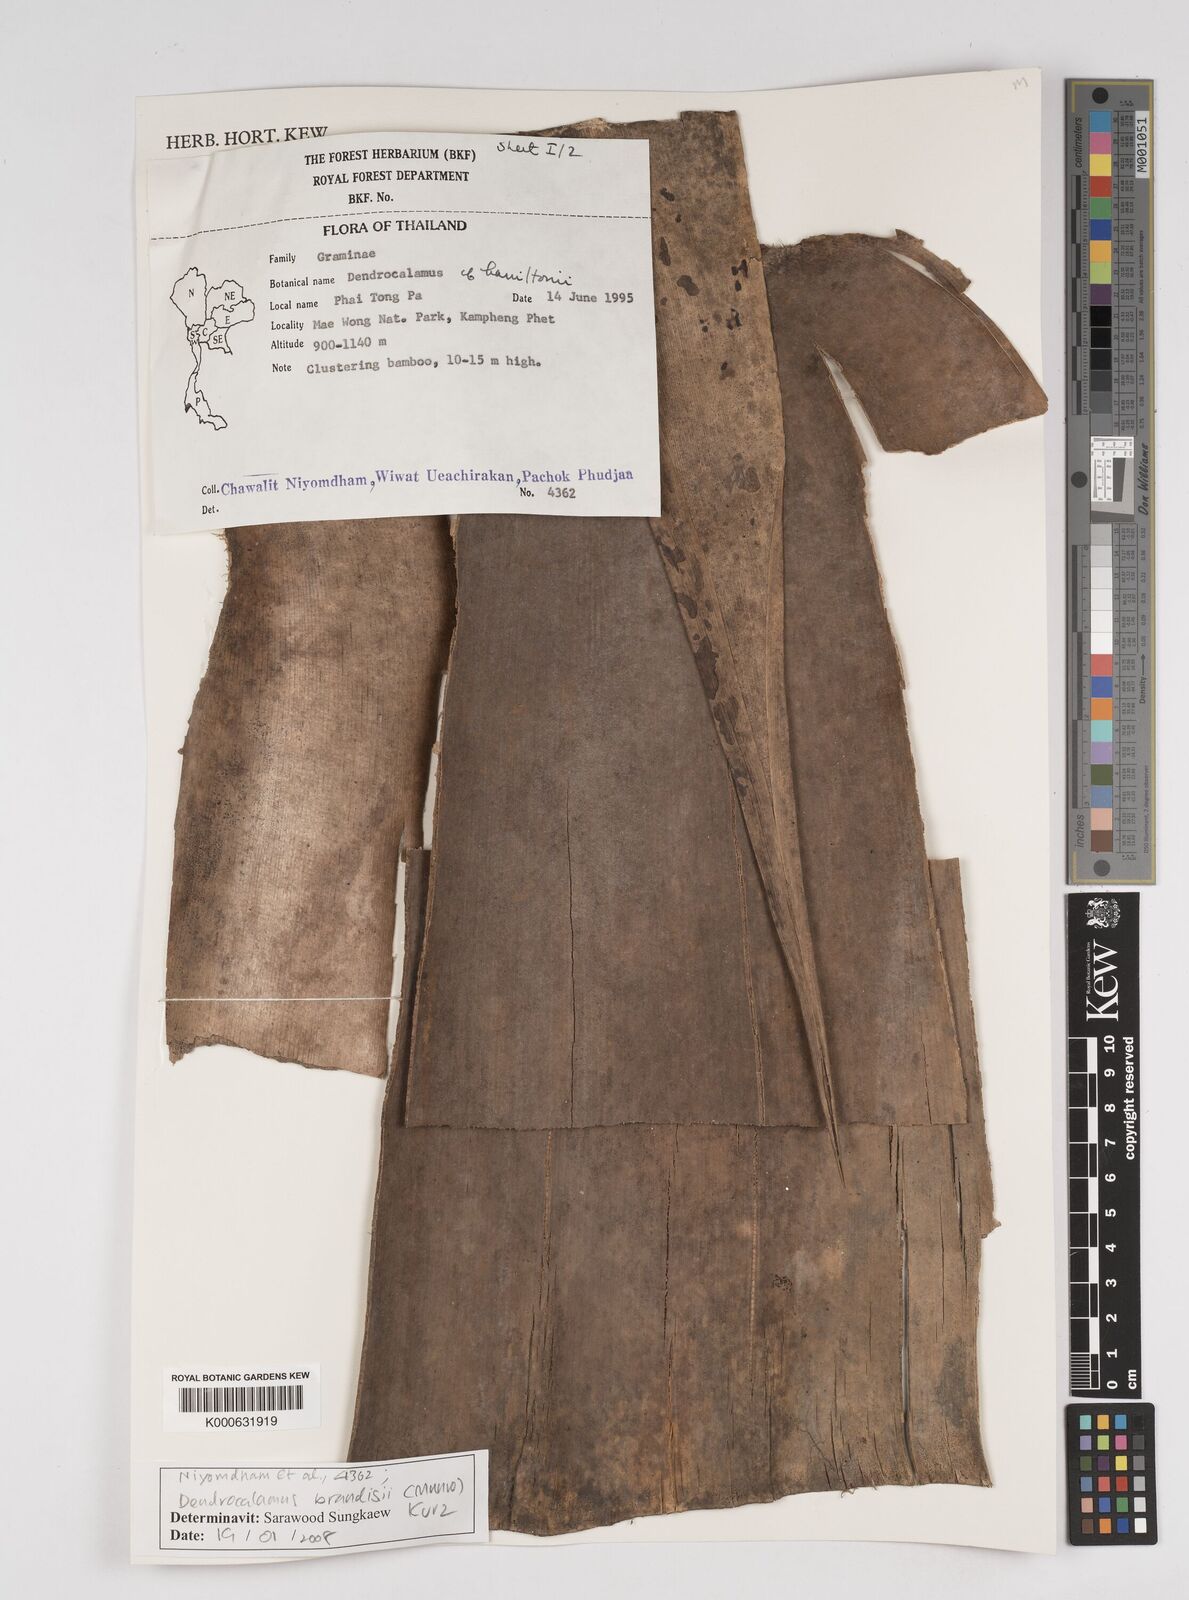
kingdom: Plantae
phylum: Tracheophyta
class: Liliopsida
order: Poales
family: Poaceae
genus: Dendrocalamus
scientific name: Dendrocalamus brandisii
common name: Velvetleaf bamboo
